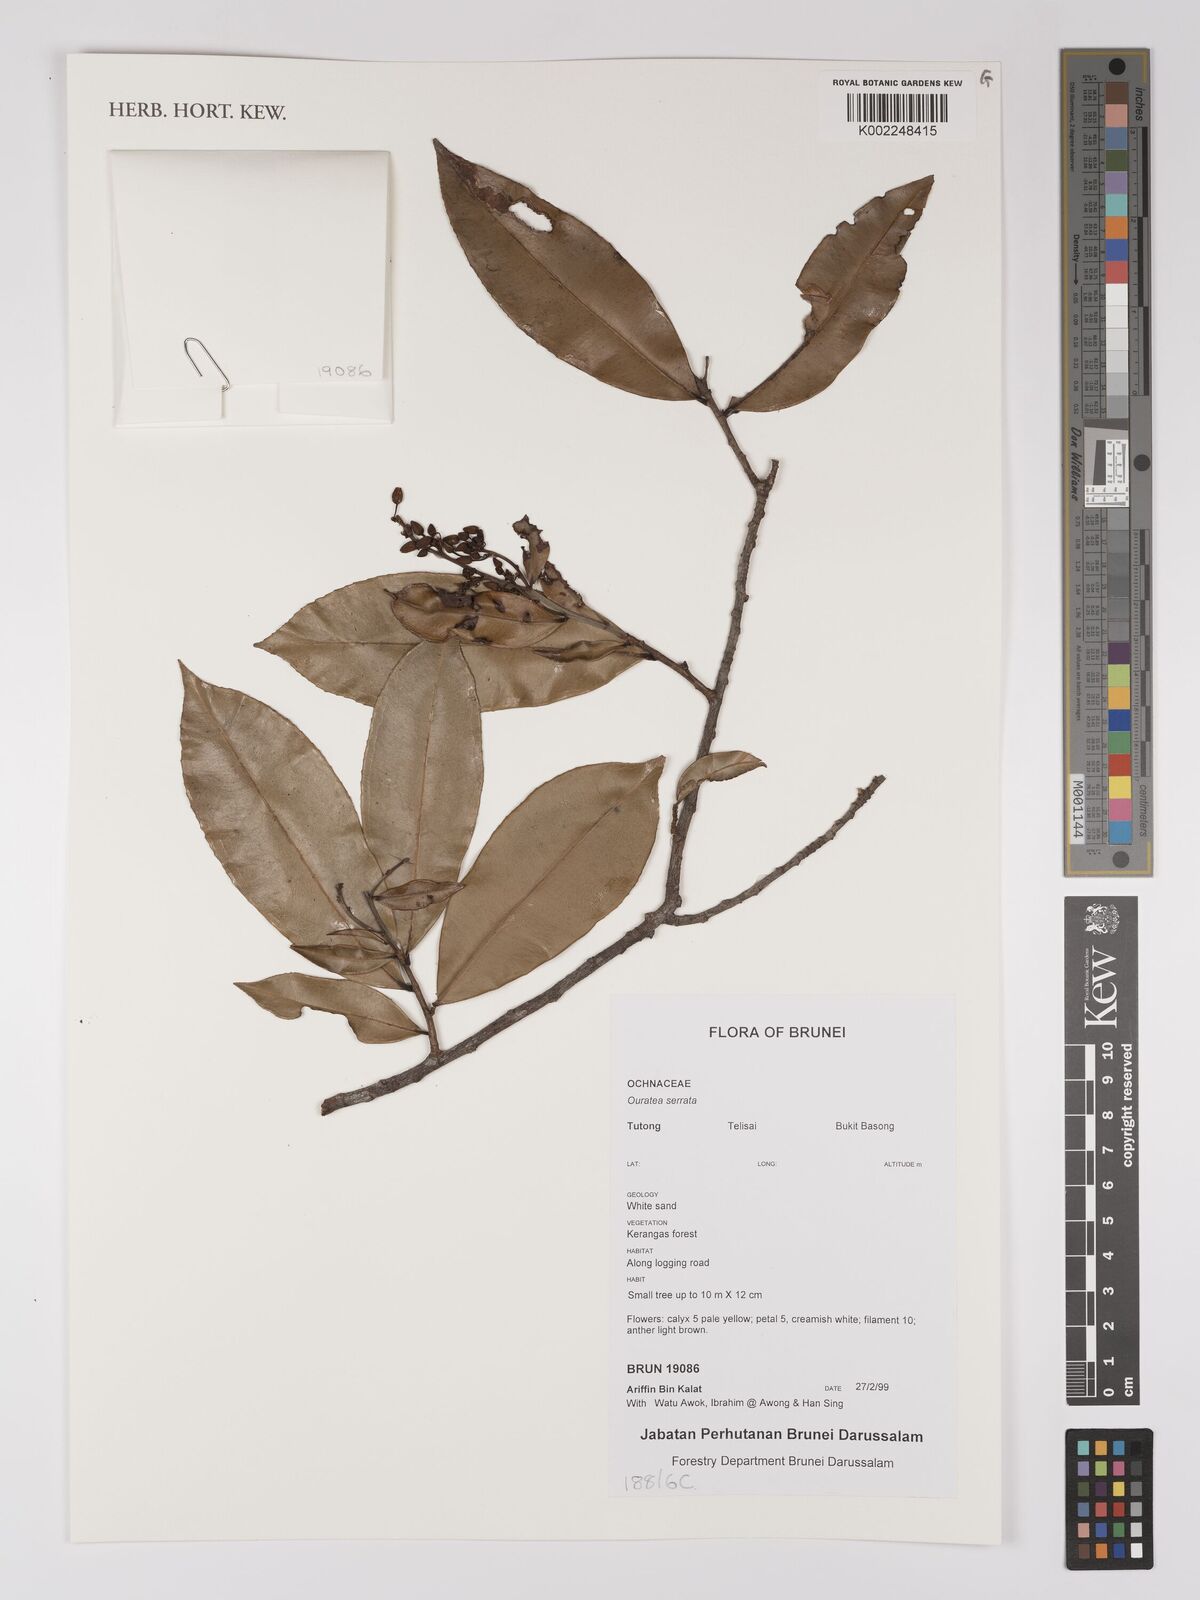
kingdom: Plantae
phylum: Tracheophyta
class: Magnoliopsida
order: Malpighiales
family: Ochnaceae
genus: Gomphia
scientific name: Gomphia serrata
